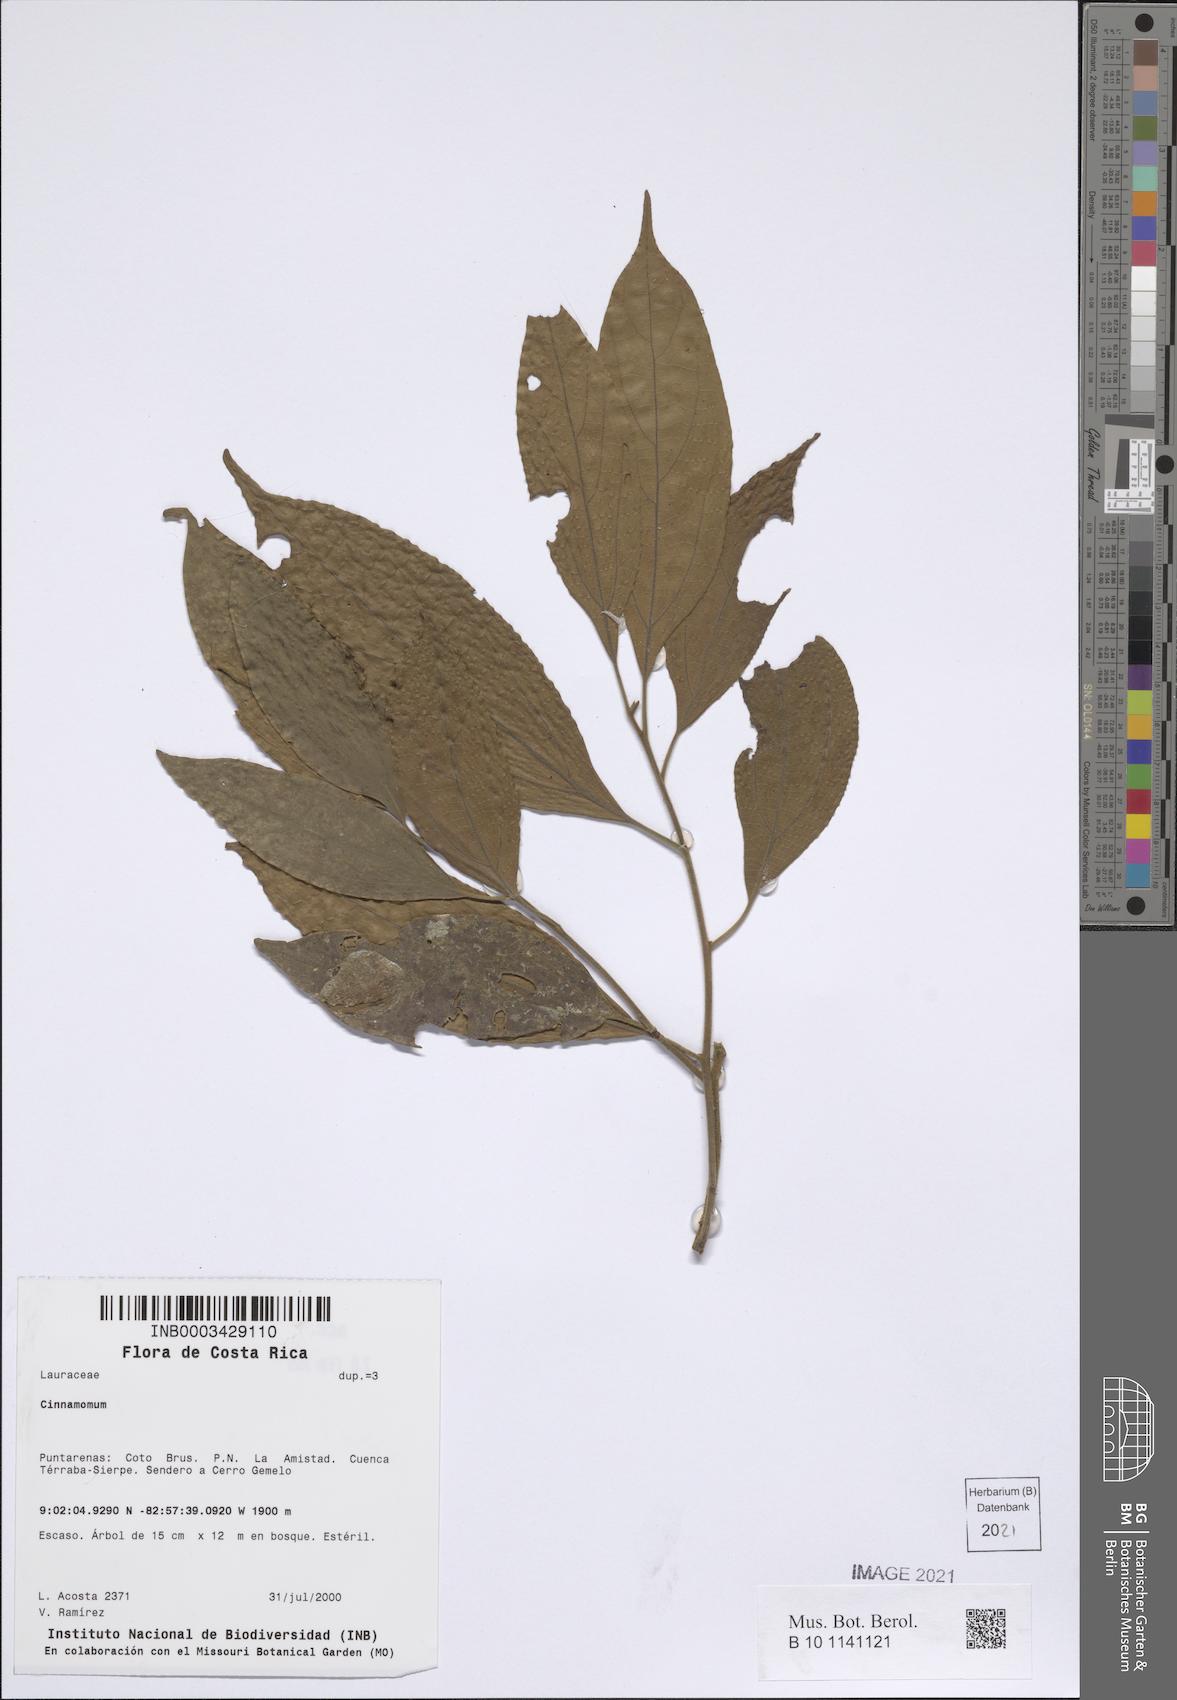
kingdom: Plantae
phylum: Tracheophyta
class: Magnoliopsida
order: Laurales
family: Lauraceae
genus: Cinnamomum
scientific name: Cinnamomum
